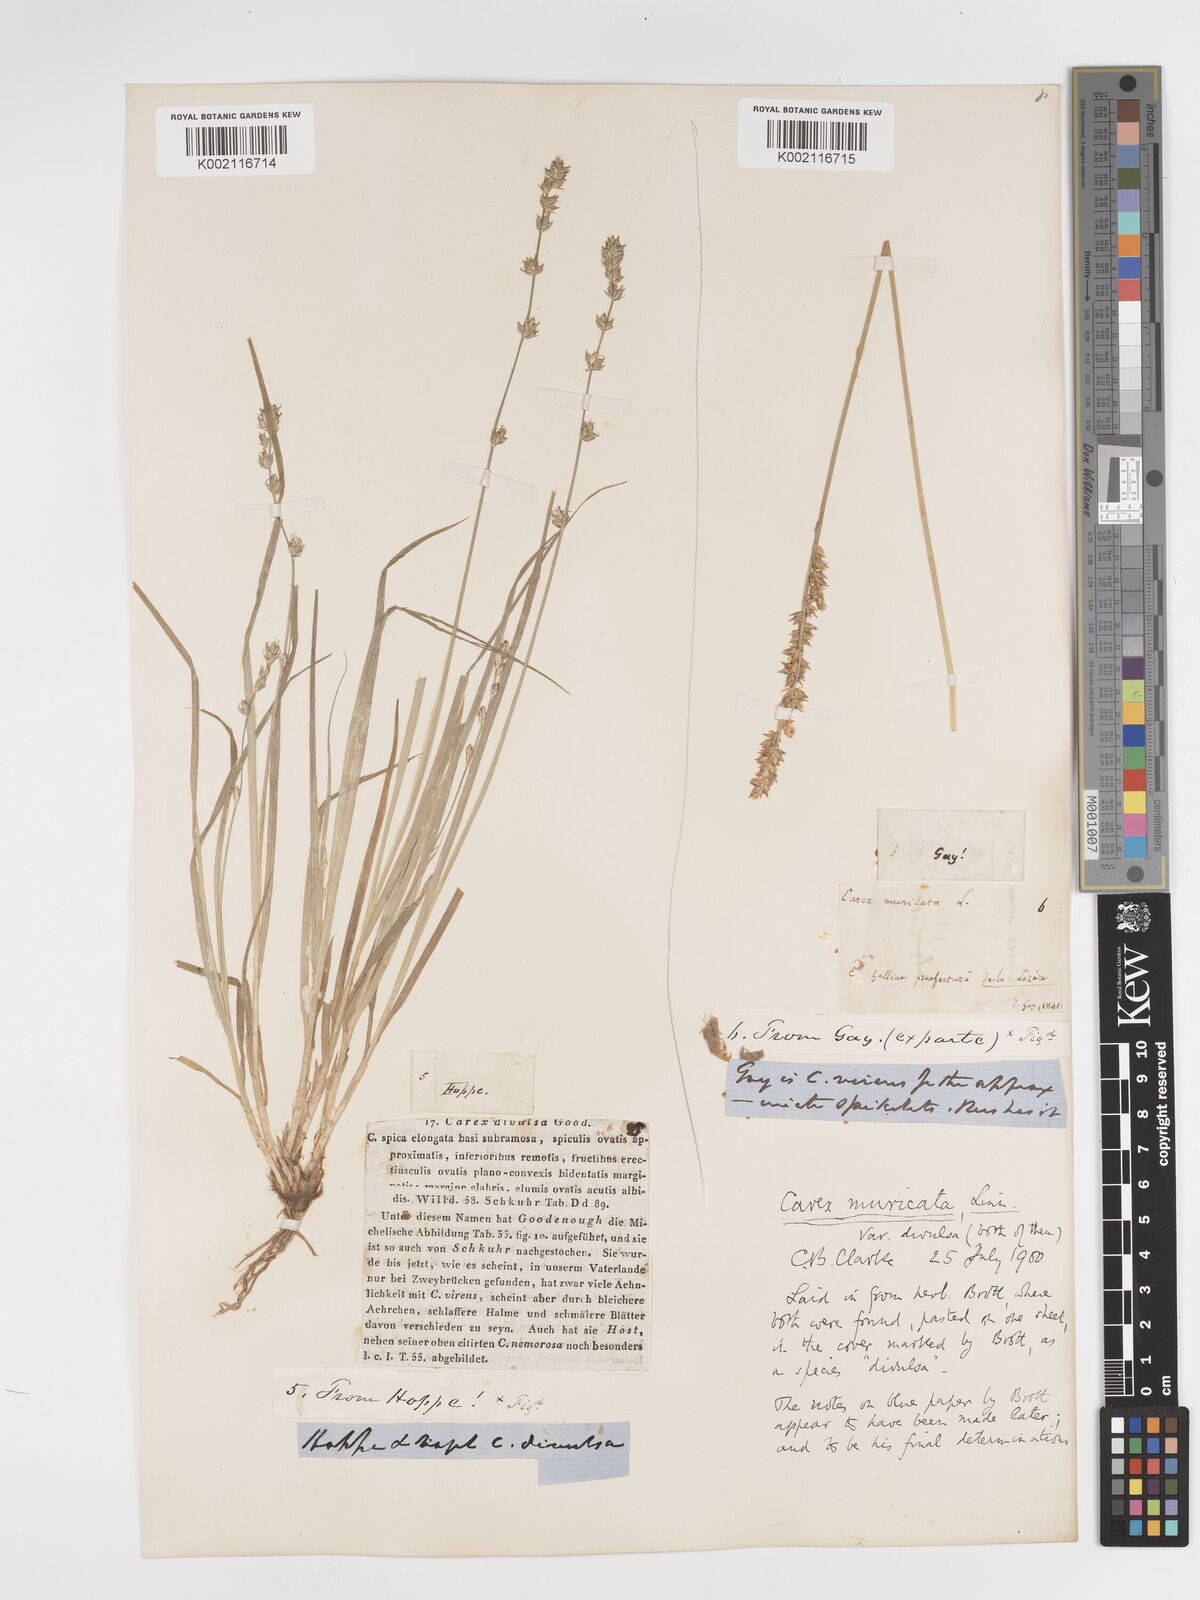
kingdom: Plantae
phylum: Tracheophyta
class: Liliopsida
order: Poales
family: Cyperaceae
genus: Carex
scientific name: Carex divulsa
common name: Grassland sedge
